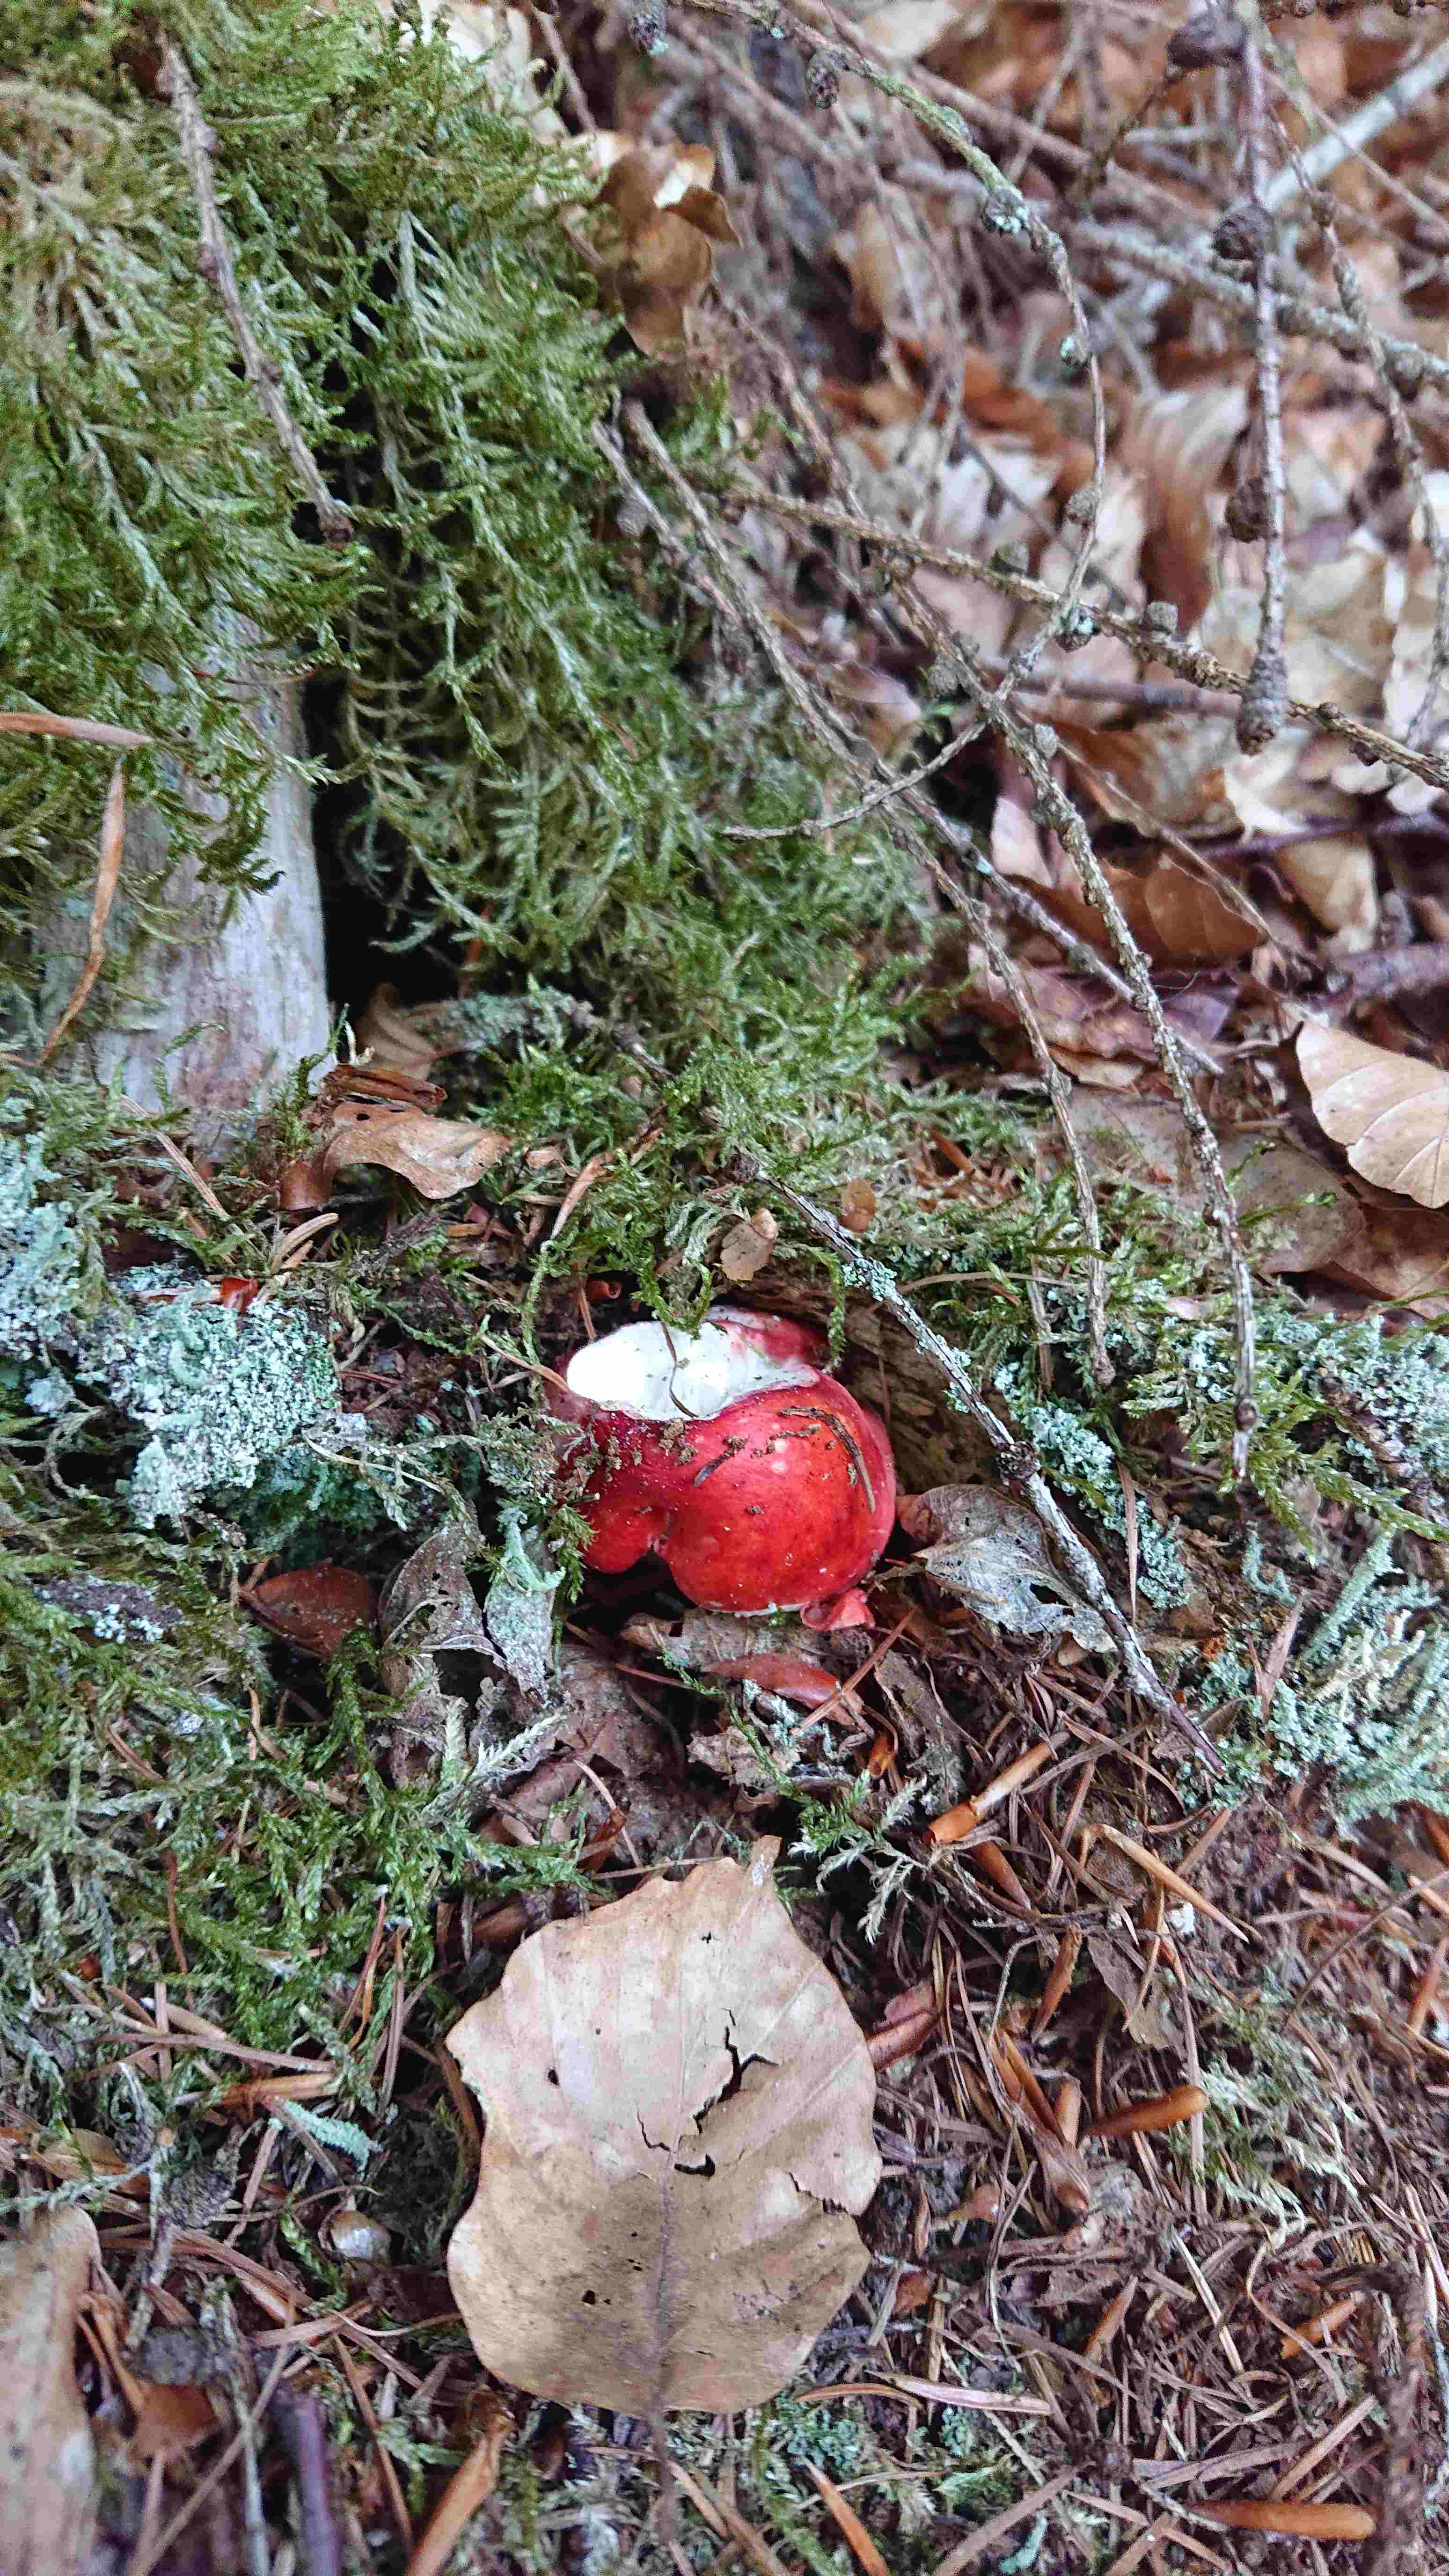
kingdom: Fungi
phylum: Basidiomycota
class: Agaricomycetes
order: Russulales
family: Russulaceae
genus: Russula
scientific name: Russula
